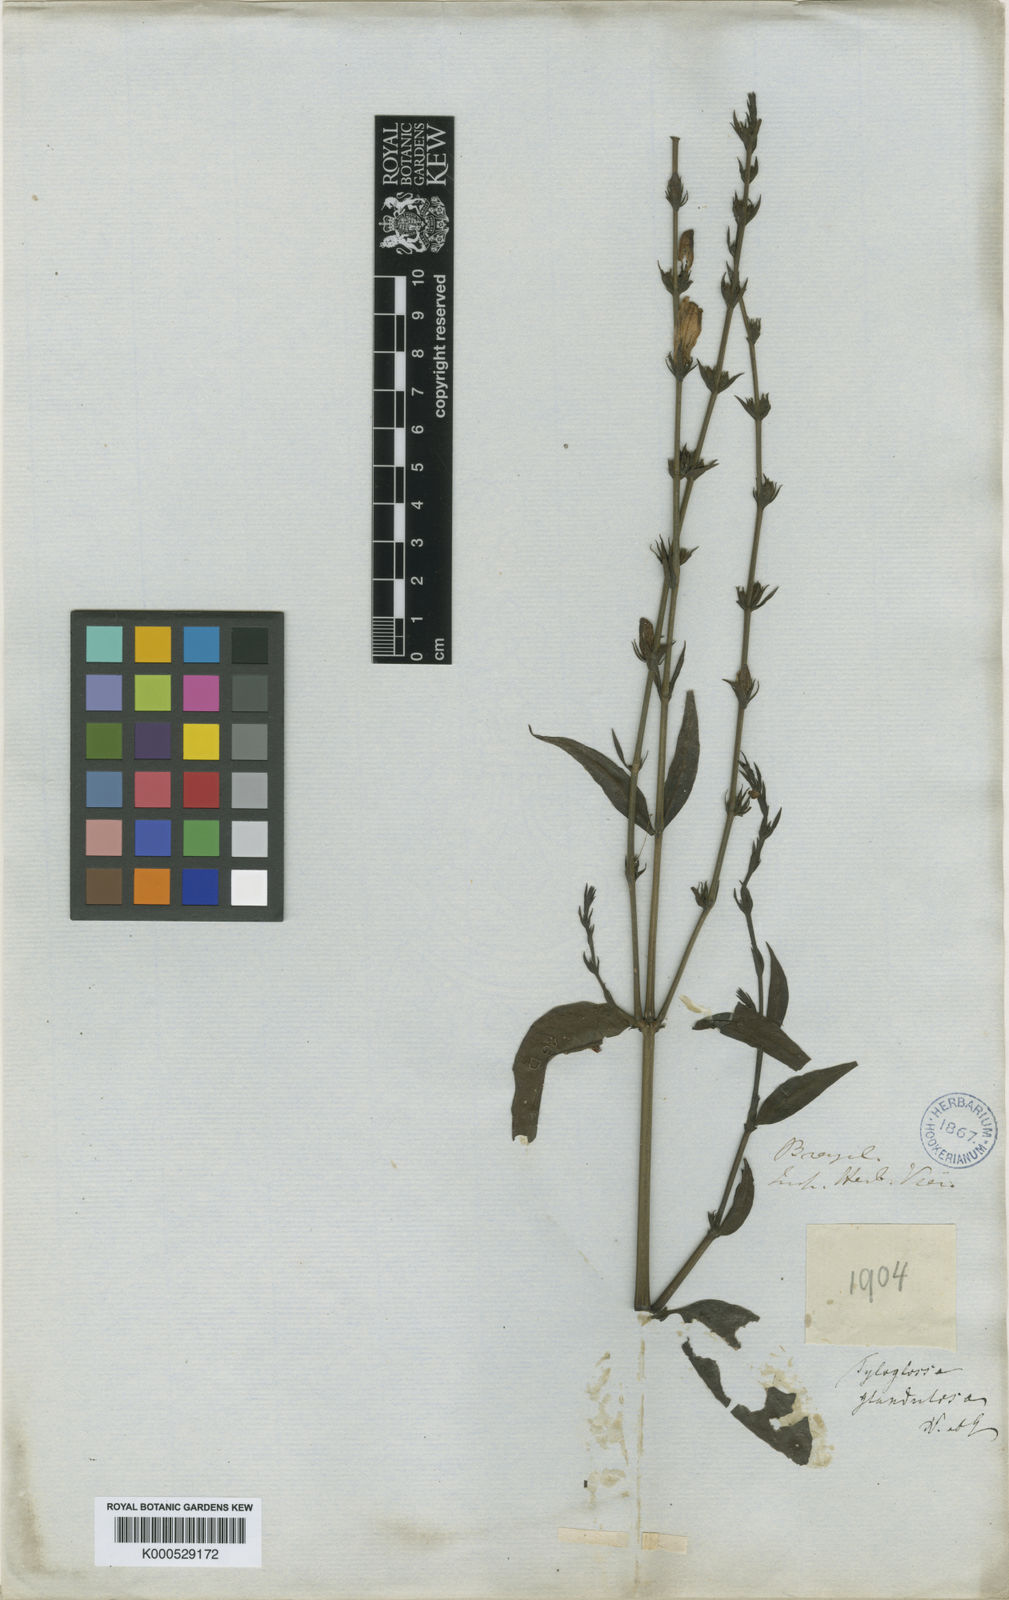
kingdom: Plantae
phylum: Tracheophyta
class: Magnoliopsida
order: Lamiales
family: Acanthaceae
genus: Justicia
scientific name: Justicia
